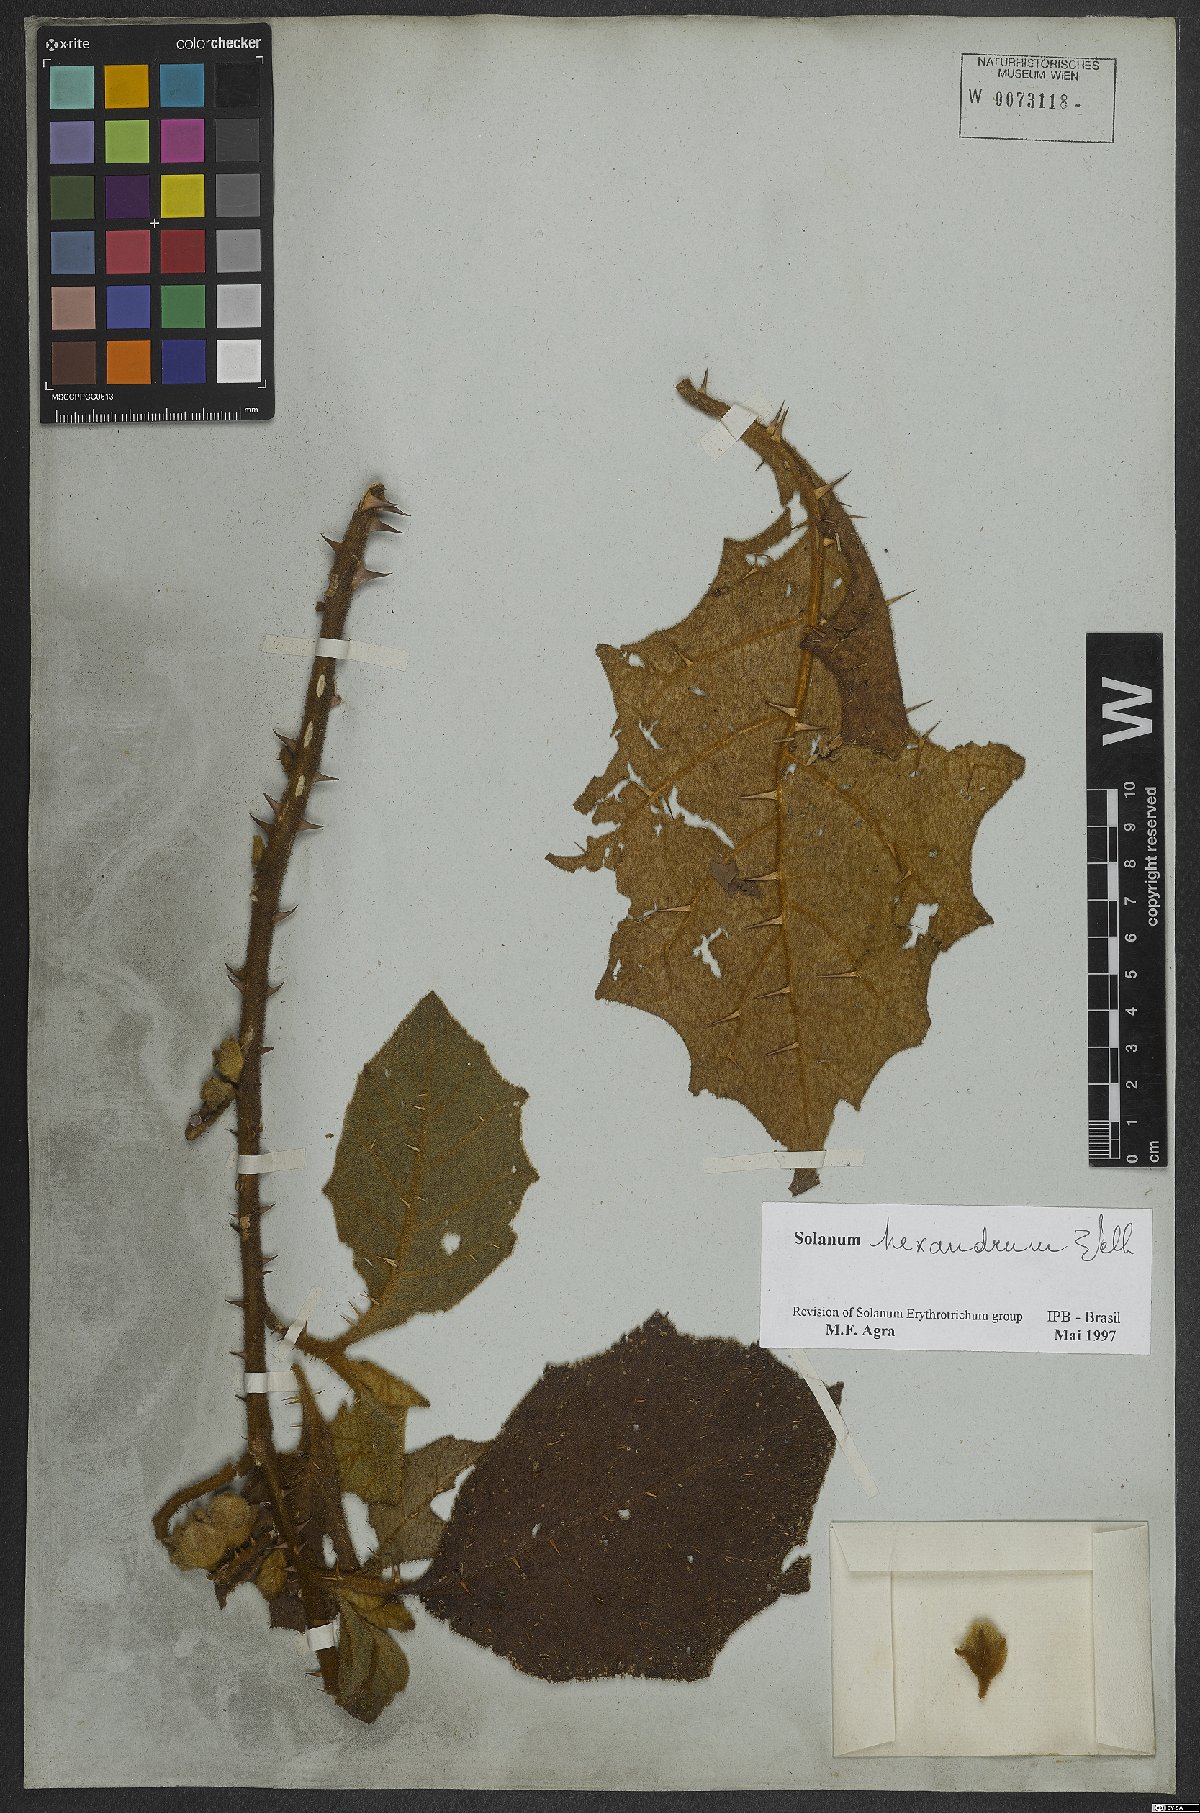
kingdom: Plantae
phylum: Tracheophyta
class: Magnoliopsida
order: Solanales
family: Solanaceae
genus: Solanum
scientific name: Solanum hexandrum
